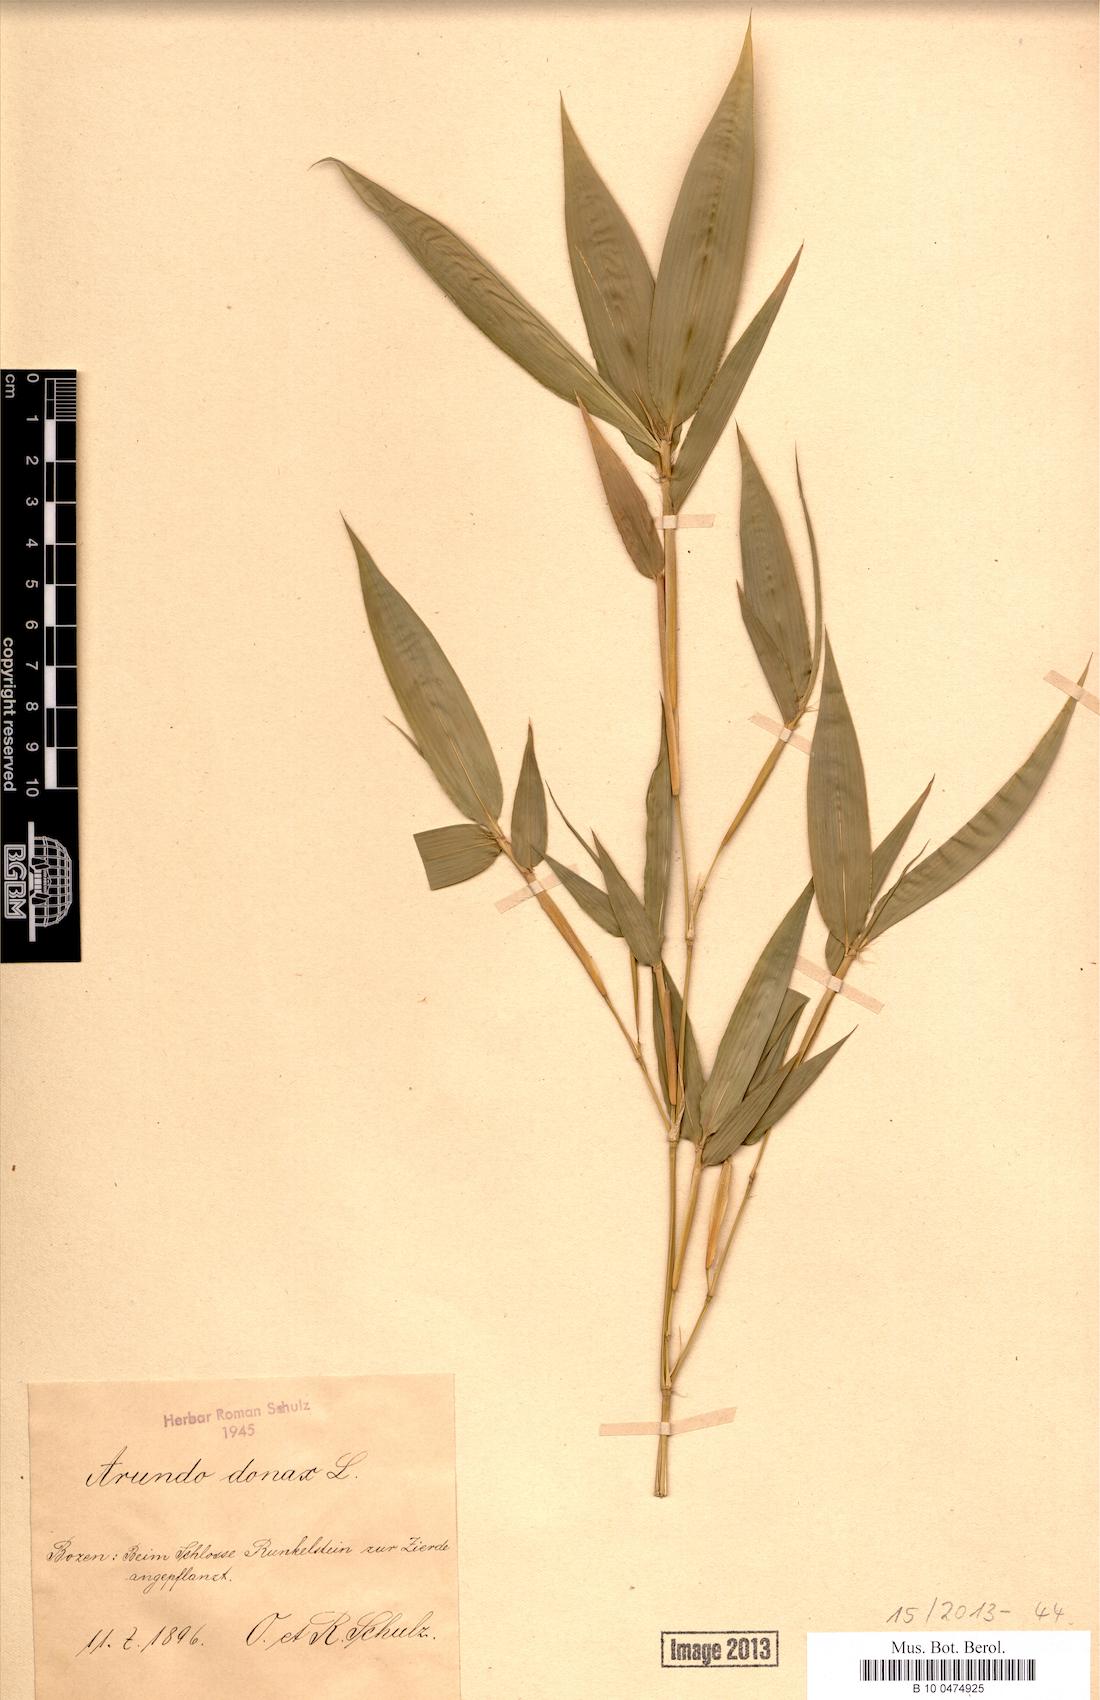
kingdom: Plantae
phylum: Tracheophyta
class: Liliopsida
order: Poales
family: Poaceae
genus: Arundo
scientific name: Arundo donax
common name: Giant reed
